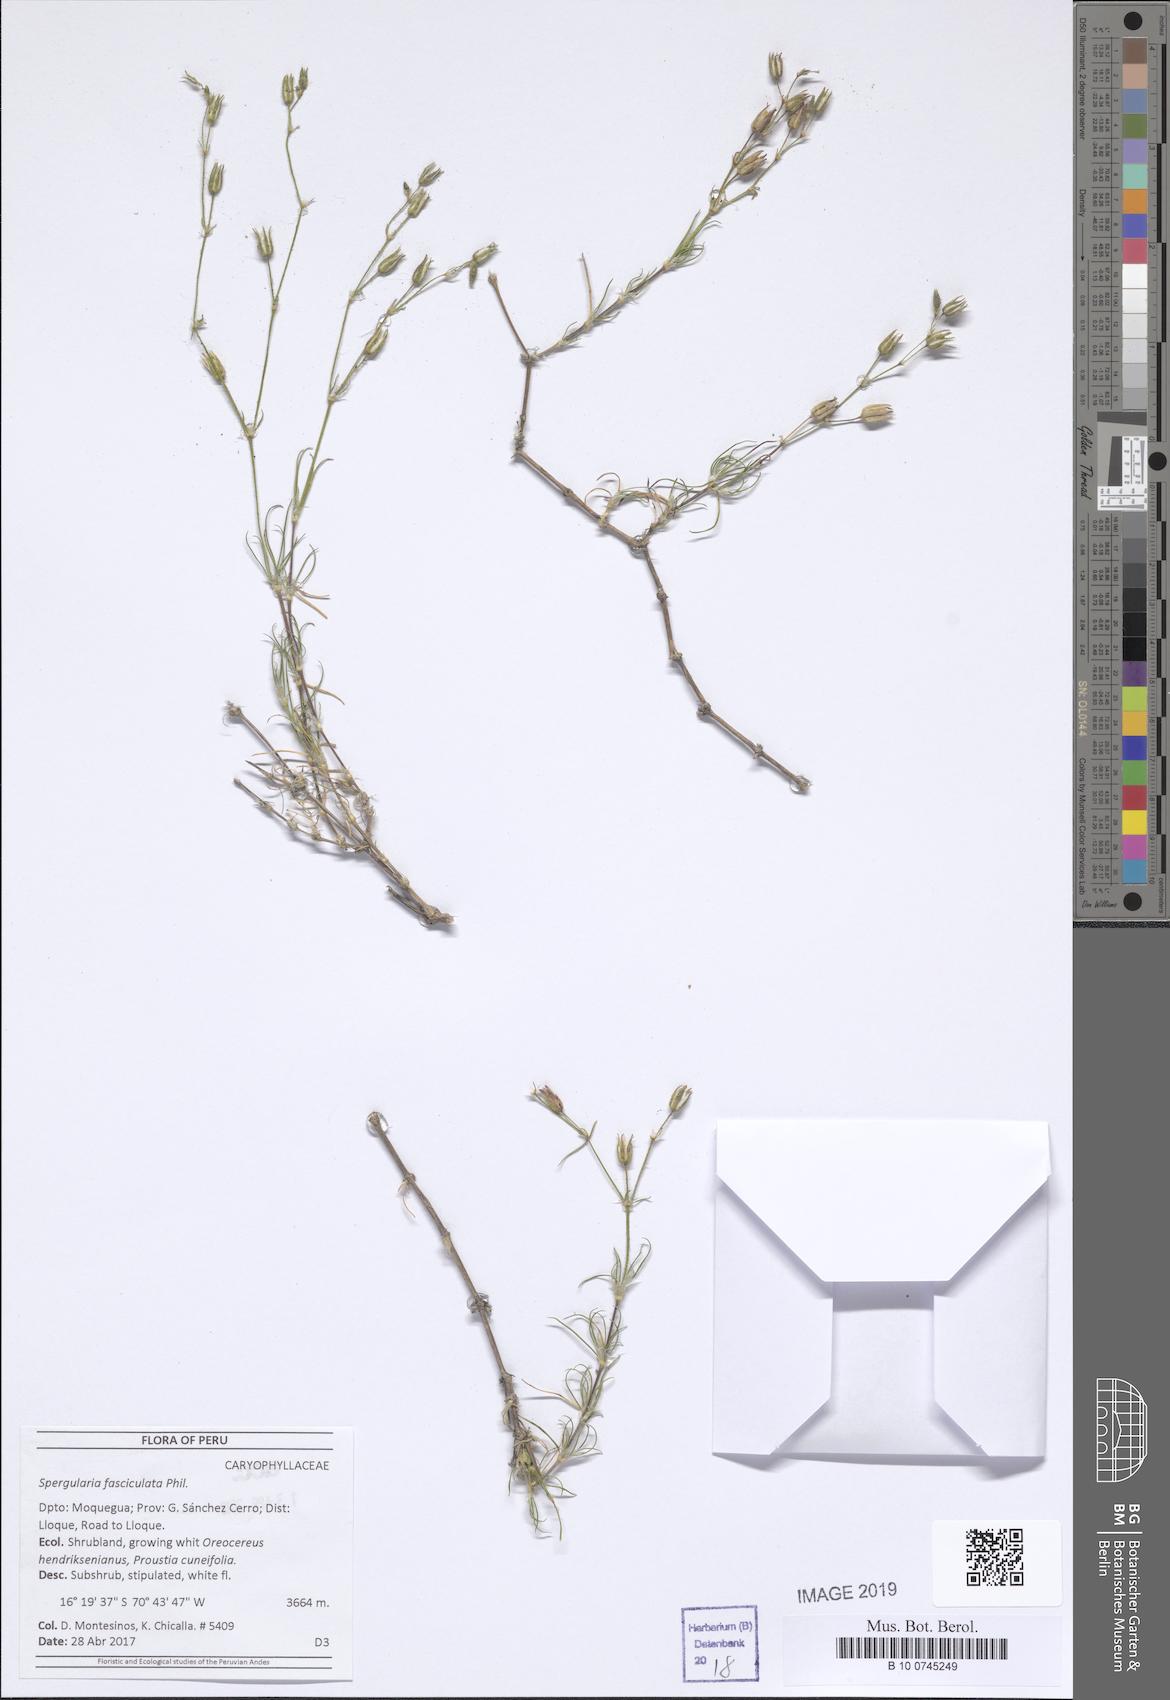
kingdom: Plantae
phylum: Tracheophyta
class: Magnoliopsida
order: Caryophyllales
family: Caryophyllaceae
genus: Spergularia
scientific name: Spergularia fasciculata
